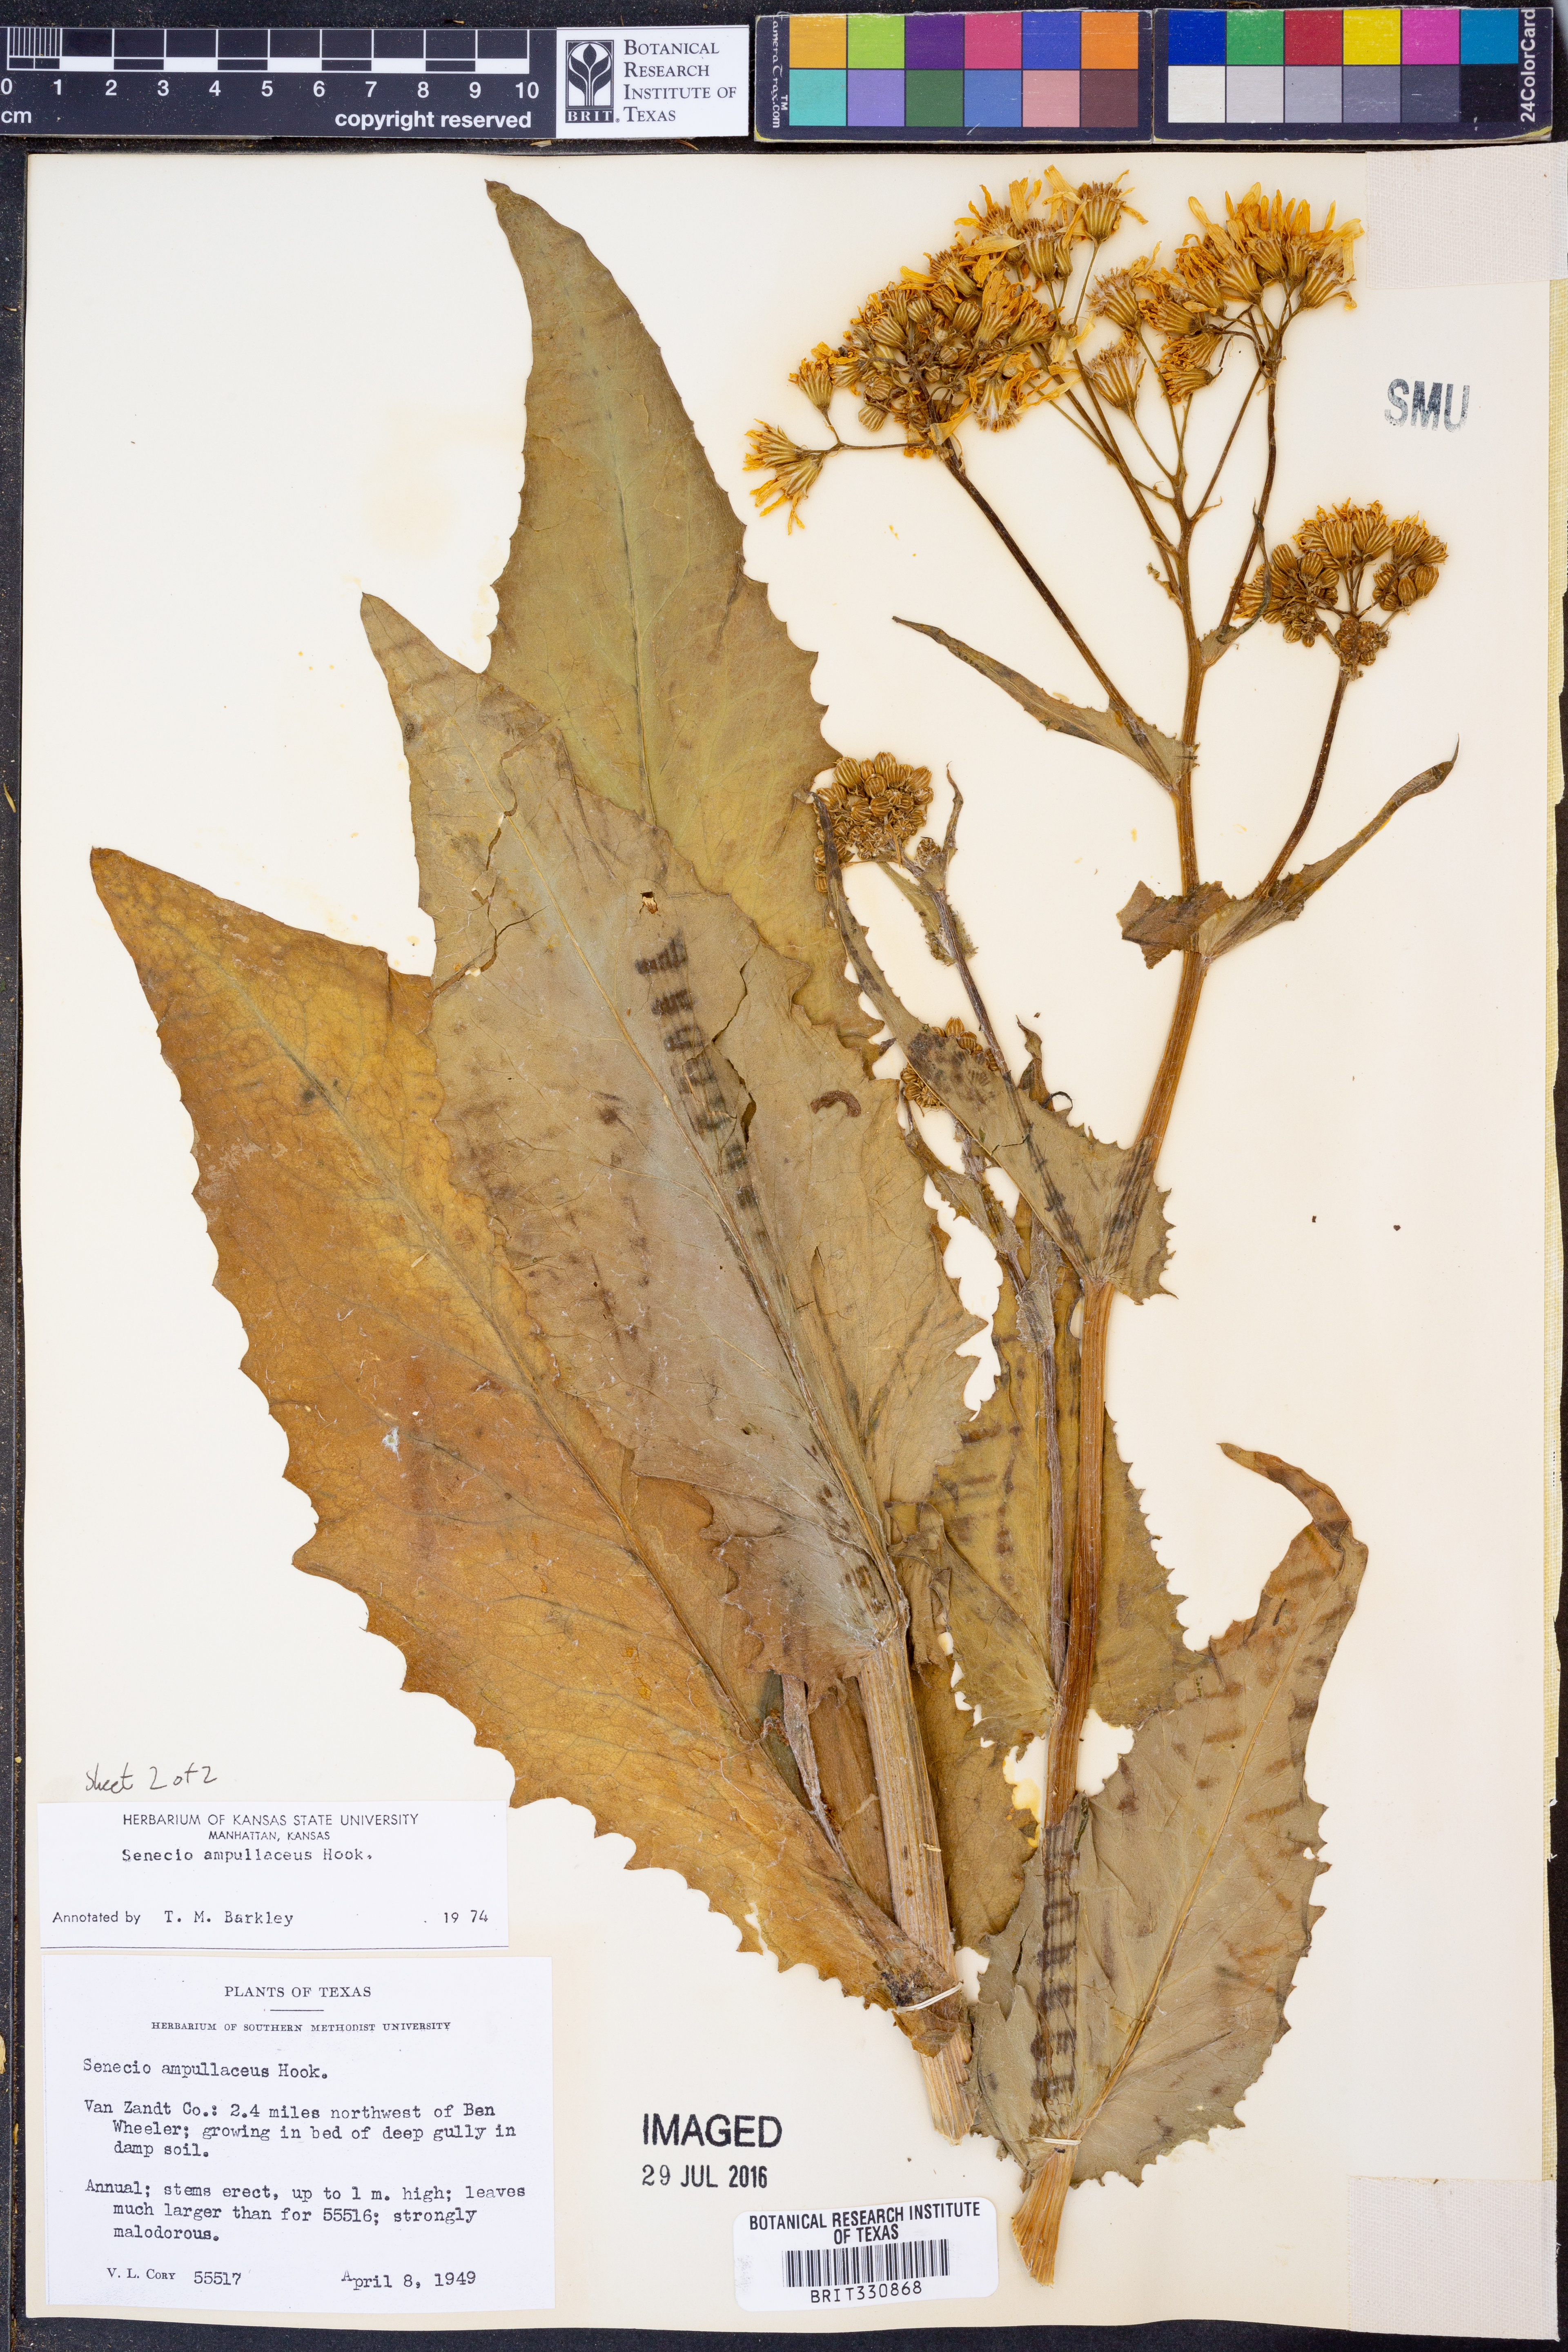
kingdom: Plantae
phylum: Tracheophyta
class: Magnoliopsida
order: Asterales
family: Asteraceae
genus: Senecio
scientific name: Senecio ampullaceus
